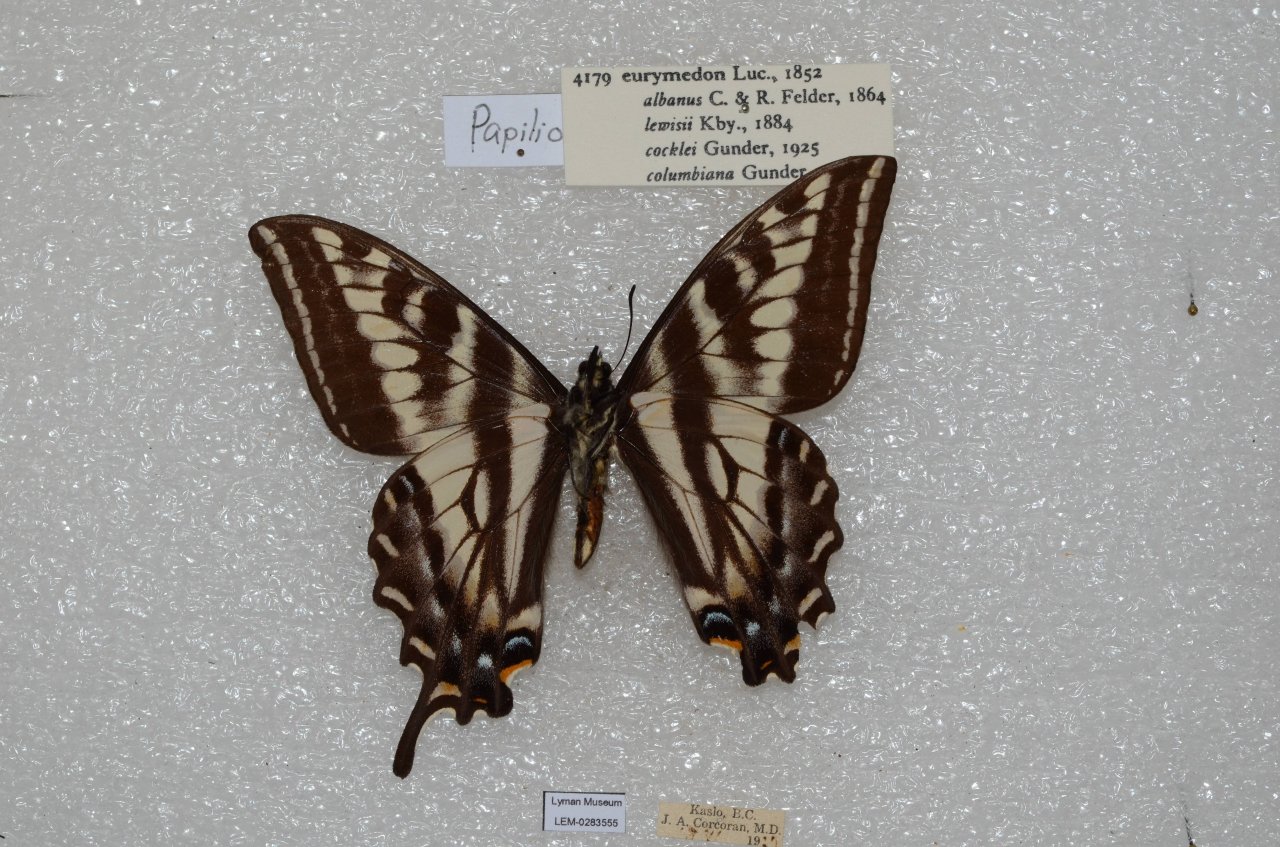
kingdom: Animalia
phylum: Arthropoda
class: Insecta
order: Lepidoptera
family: Papilionidae
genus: Pterourus
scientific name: Pterourus eurymedon
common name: Pale Swallowtail
